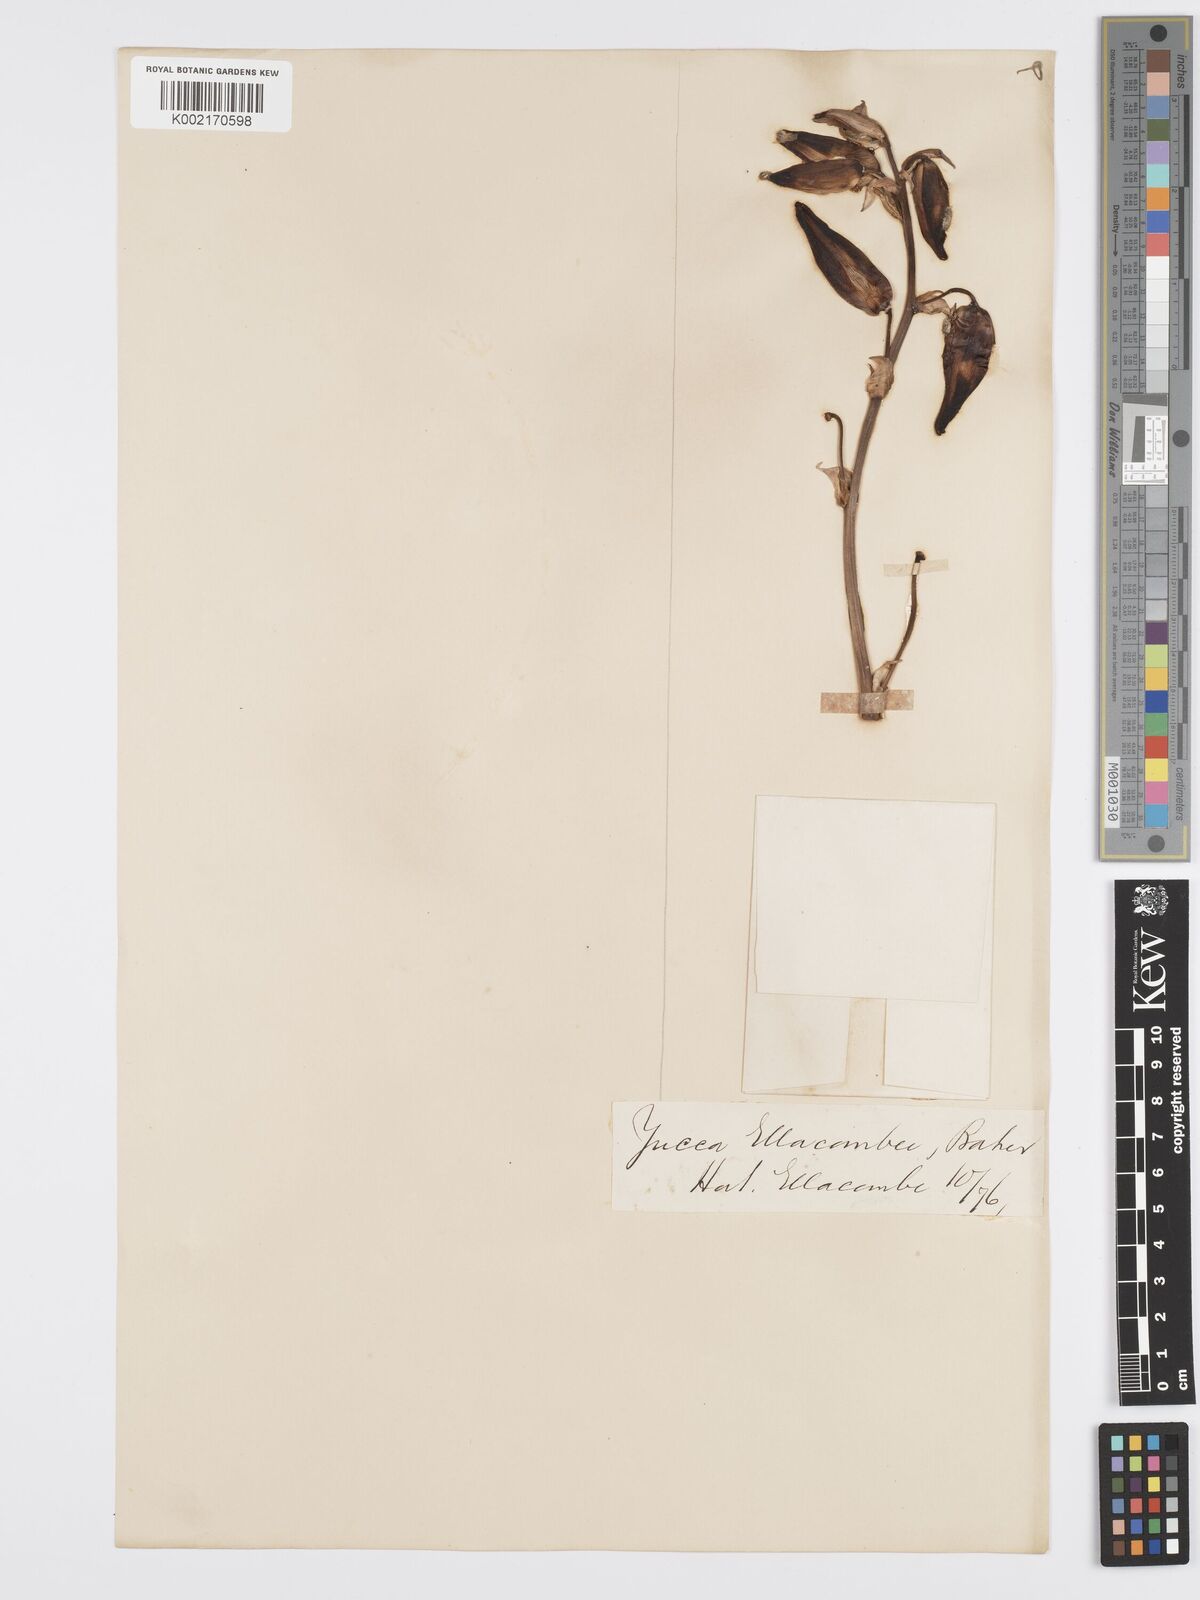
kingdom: Plantae
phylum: Tracheophyta
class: Liliopsida
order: Asparagales
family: Asparagaceae
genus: Yucca
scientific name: Yucca gloriosa
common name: Spanish-dagger
